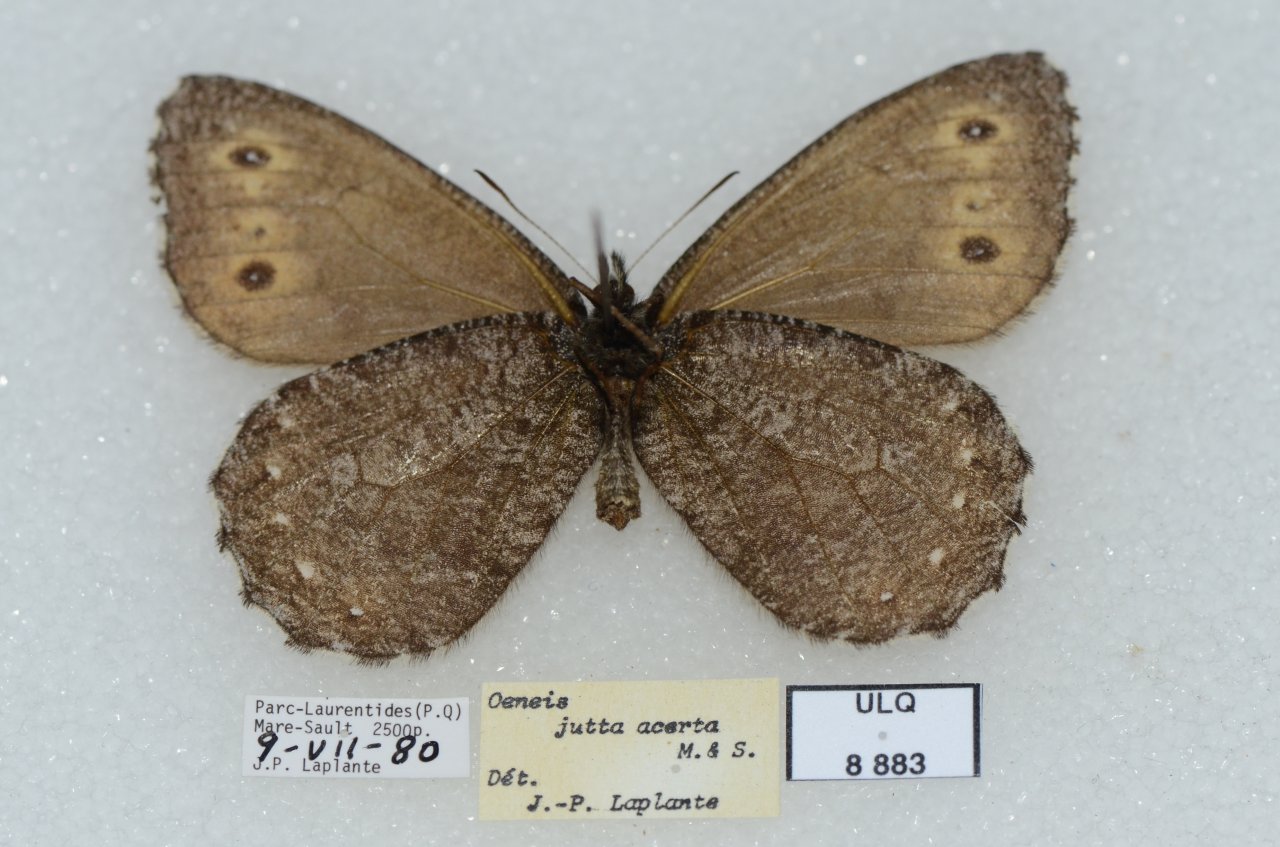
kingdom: Animalia
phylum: Arthropoda
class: Insecta
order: Lepidoptera
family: Nymphalidae
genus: Oeneis
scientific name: Oeneis jutta
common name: Jutta Arctic
